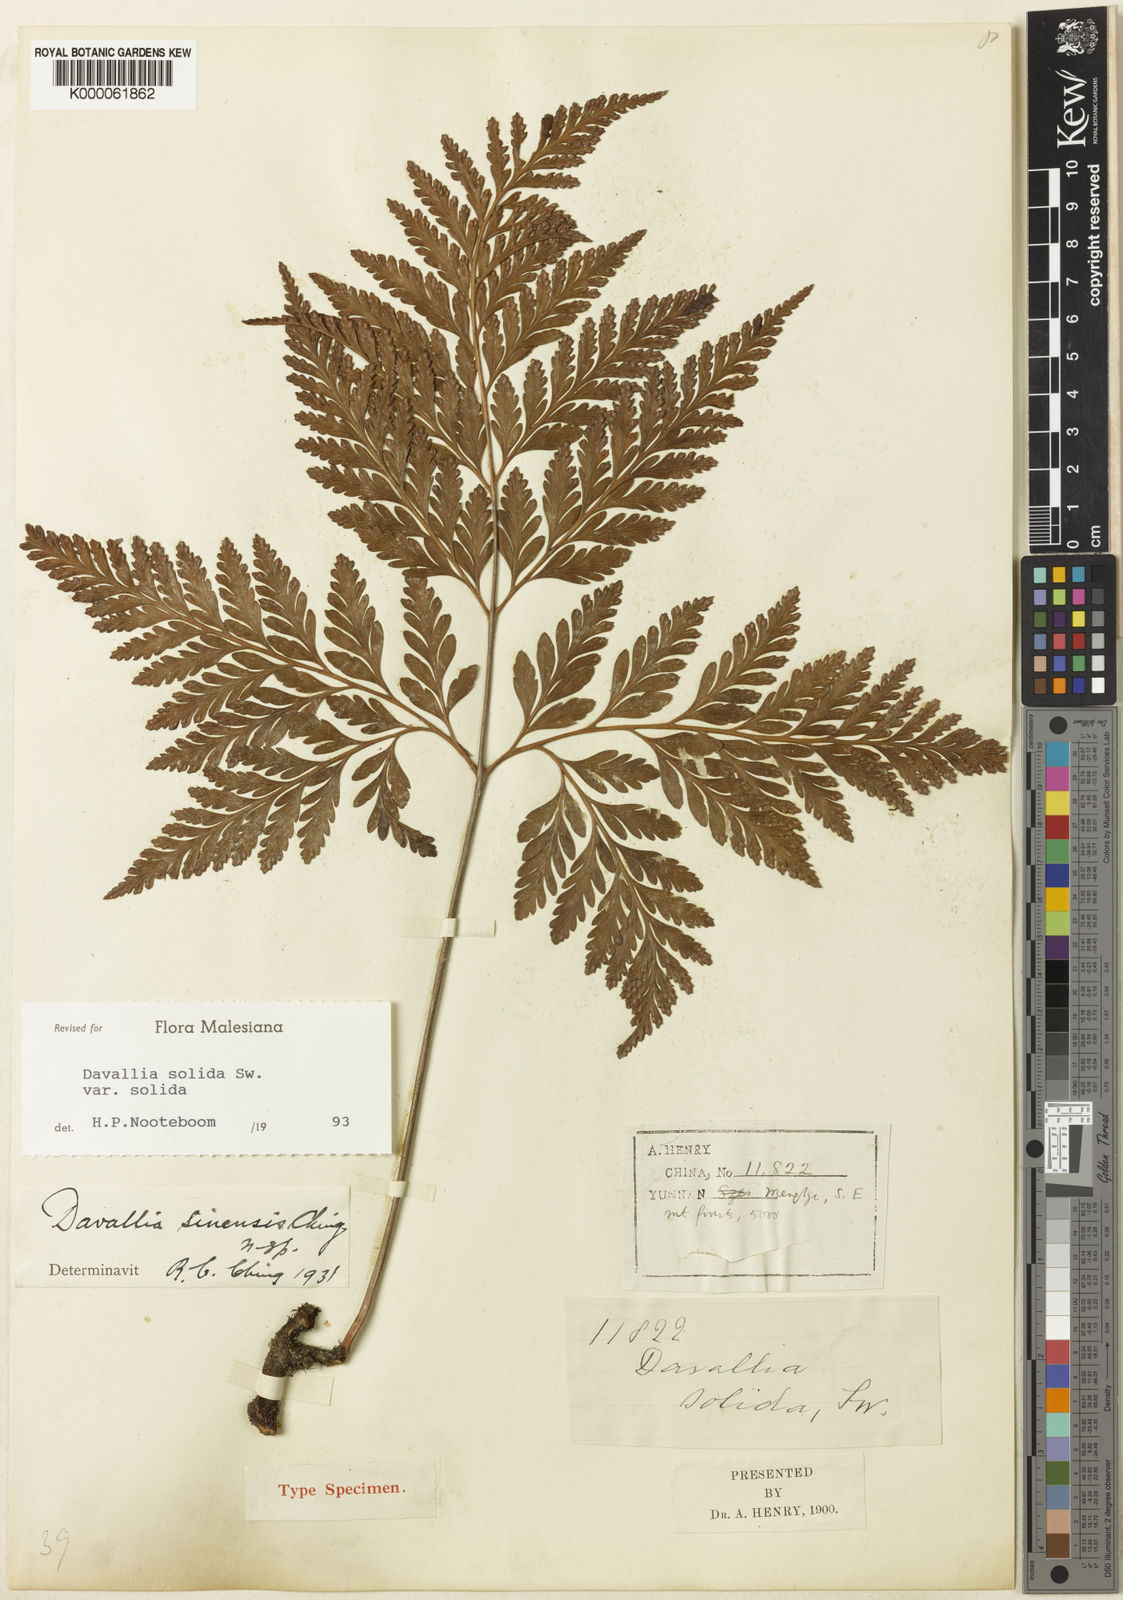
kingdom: Plantae
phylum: Tracheophyta
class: Polypodiopsida
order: Polypodiales
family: Davalliaceae
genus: Davallia
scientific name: Davallia solida
